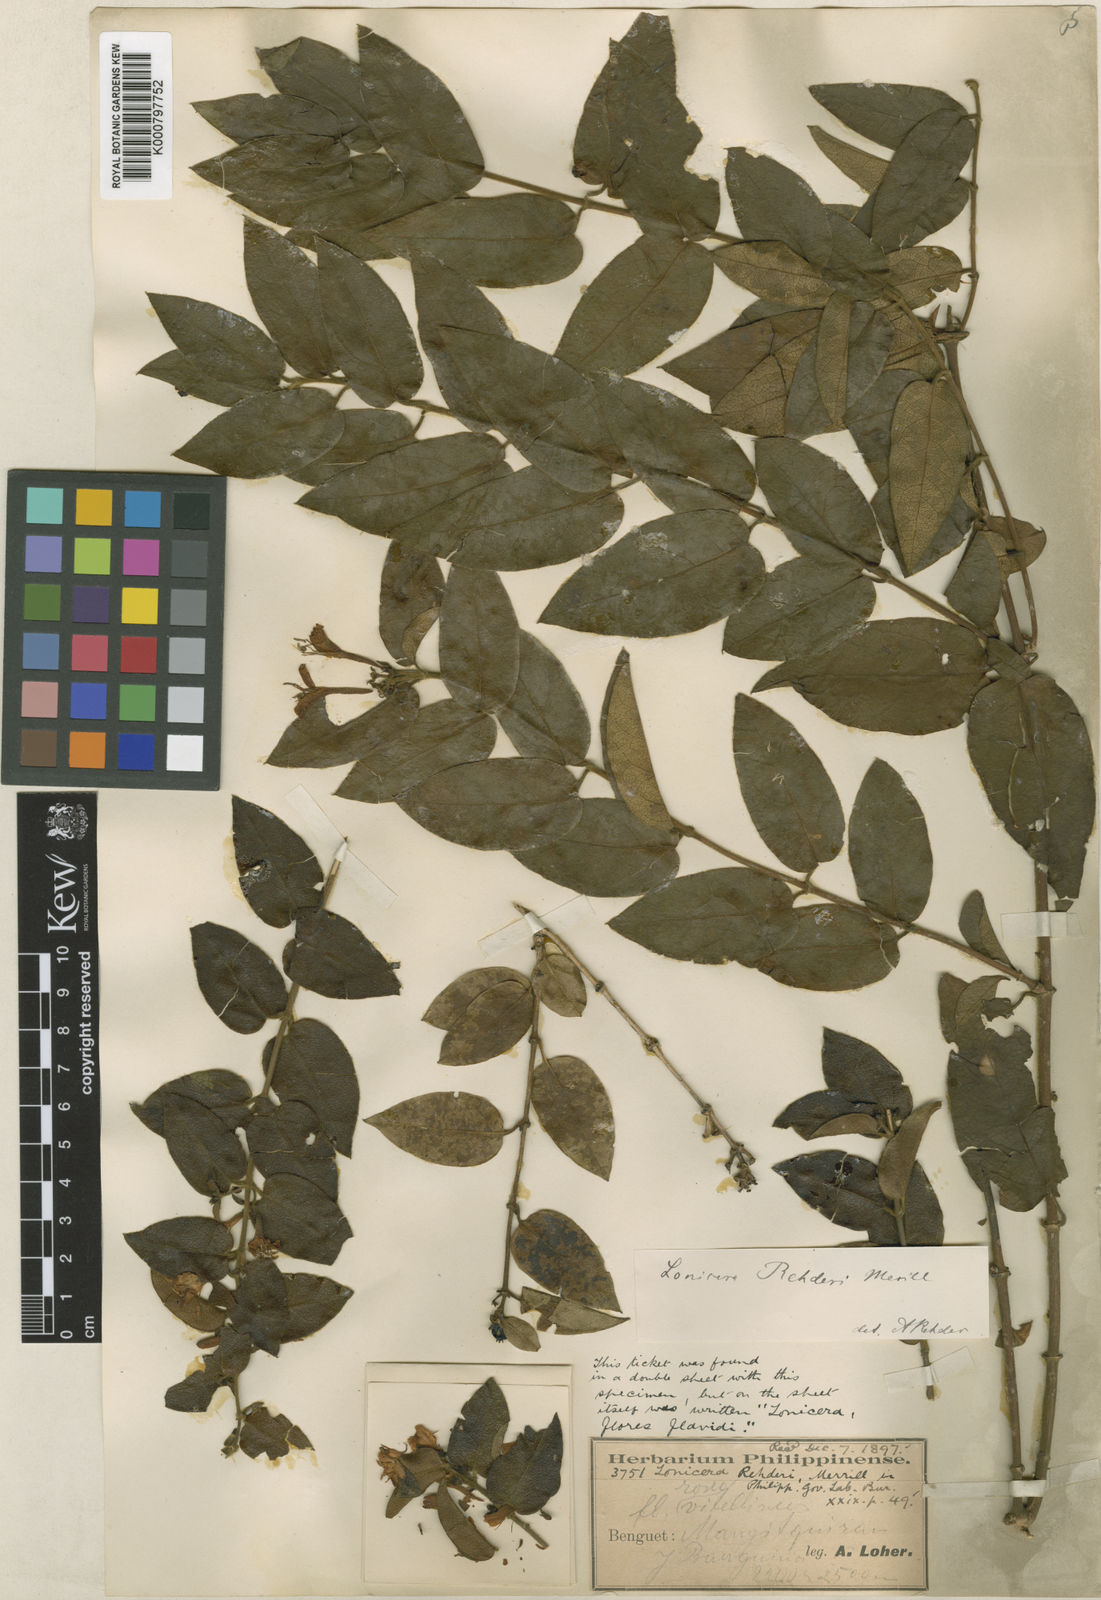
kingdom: Plantae
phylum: Tracheophyta
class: Magnoliopsida
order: Dipsacales
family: Caprifoliaceae
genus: Lonicera
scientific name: Lonicera acuminata
